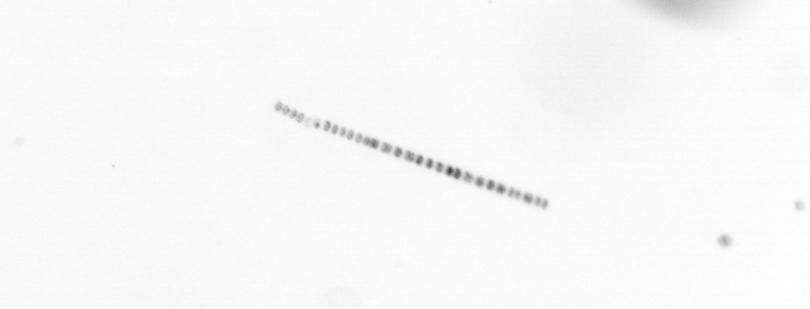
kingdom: Chromista
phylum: Ochrophyta
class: Bacillariophyceae
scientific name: Bacillariophyceae
